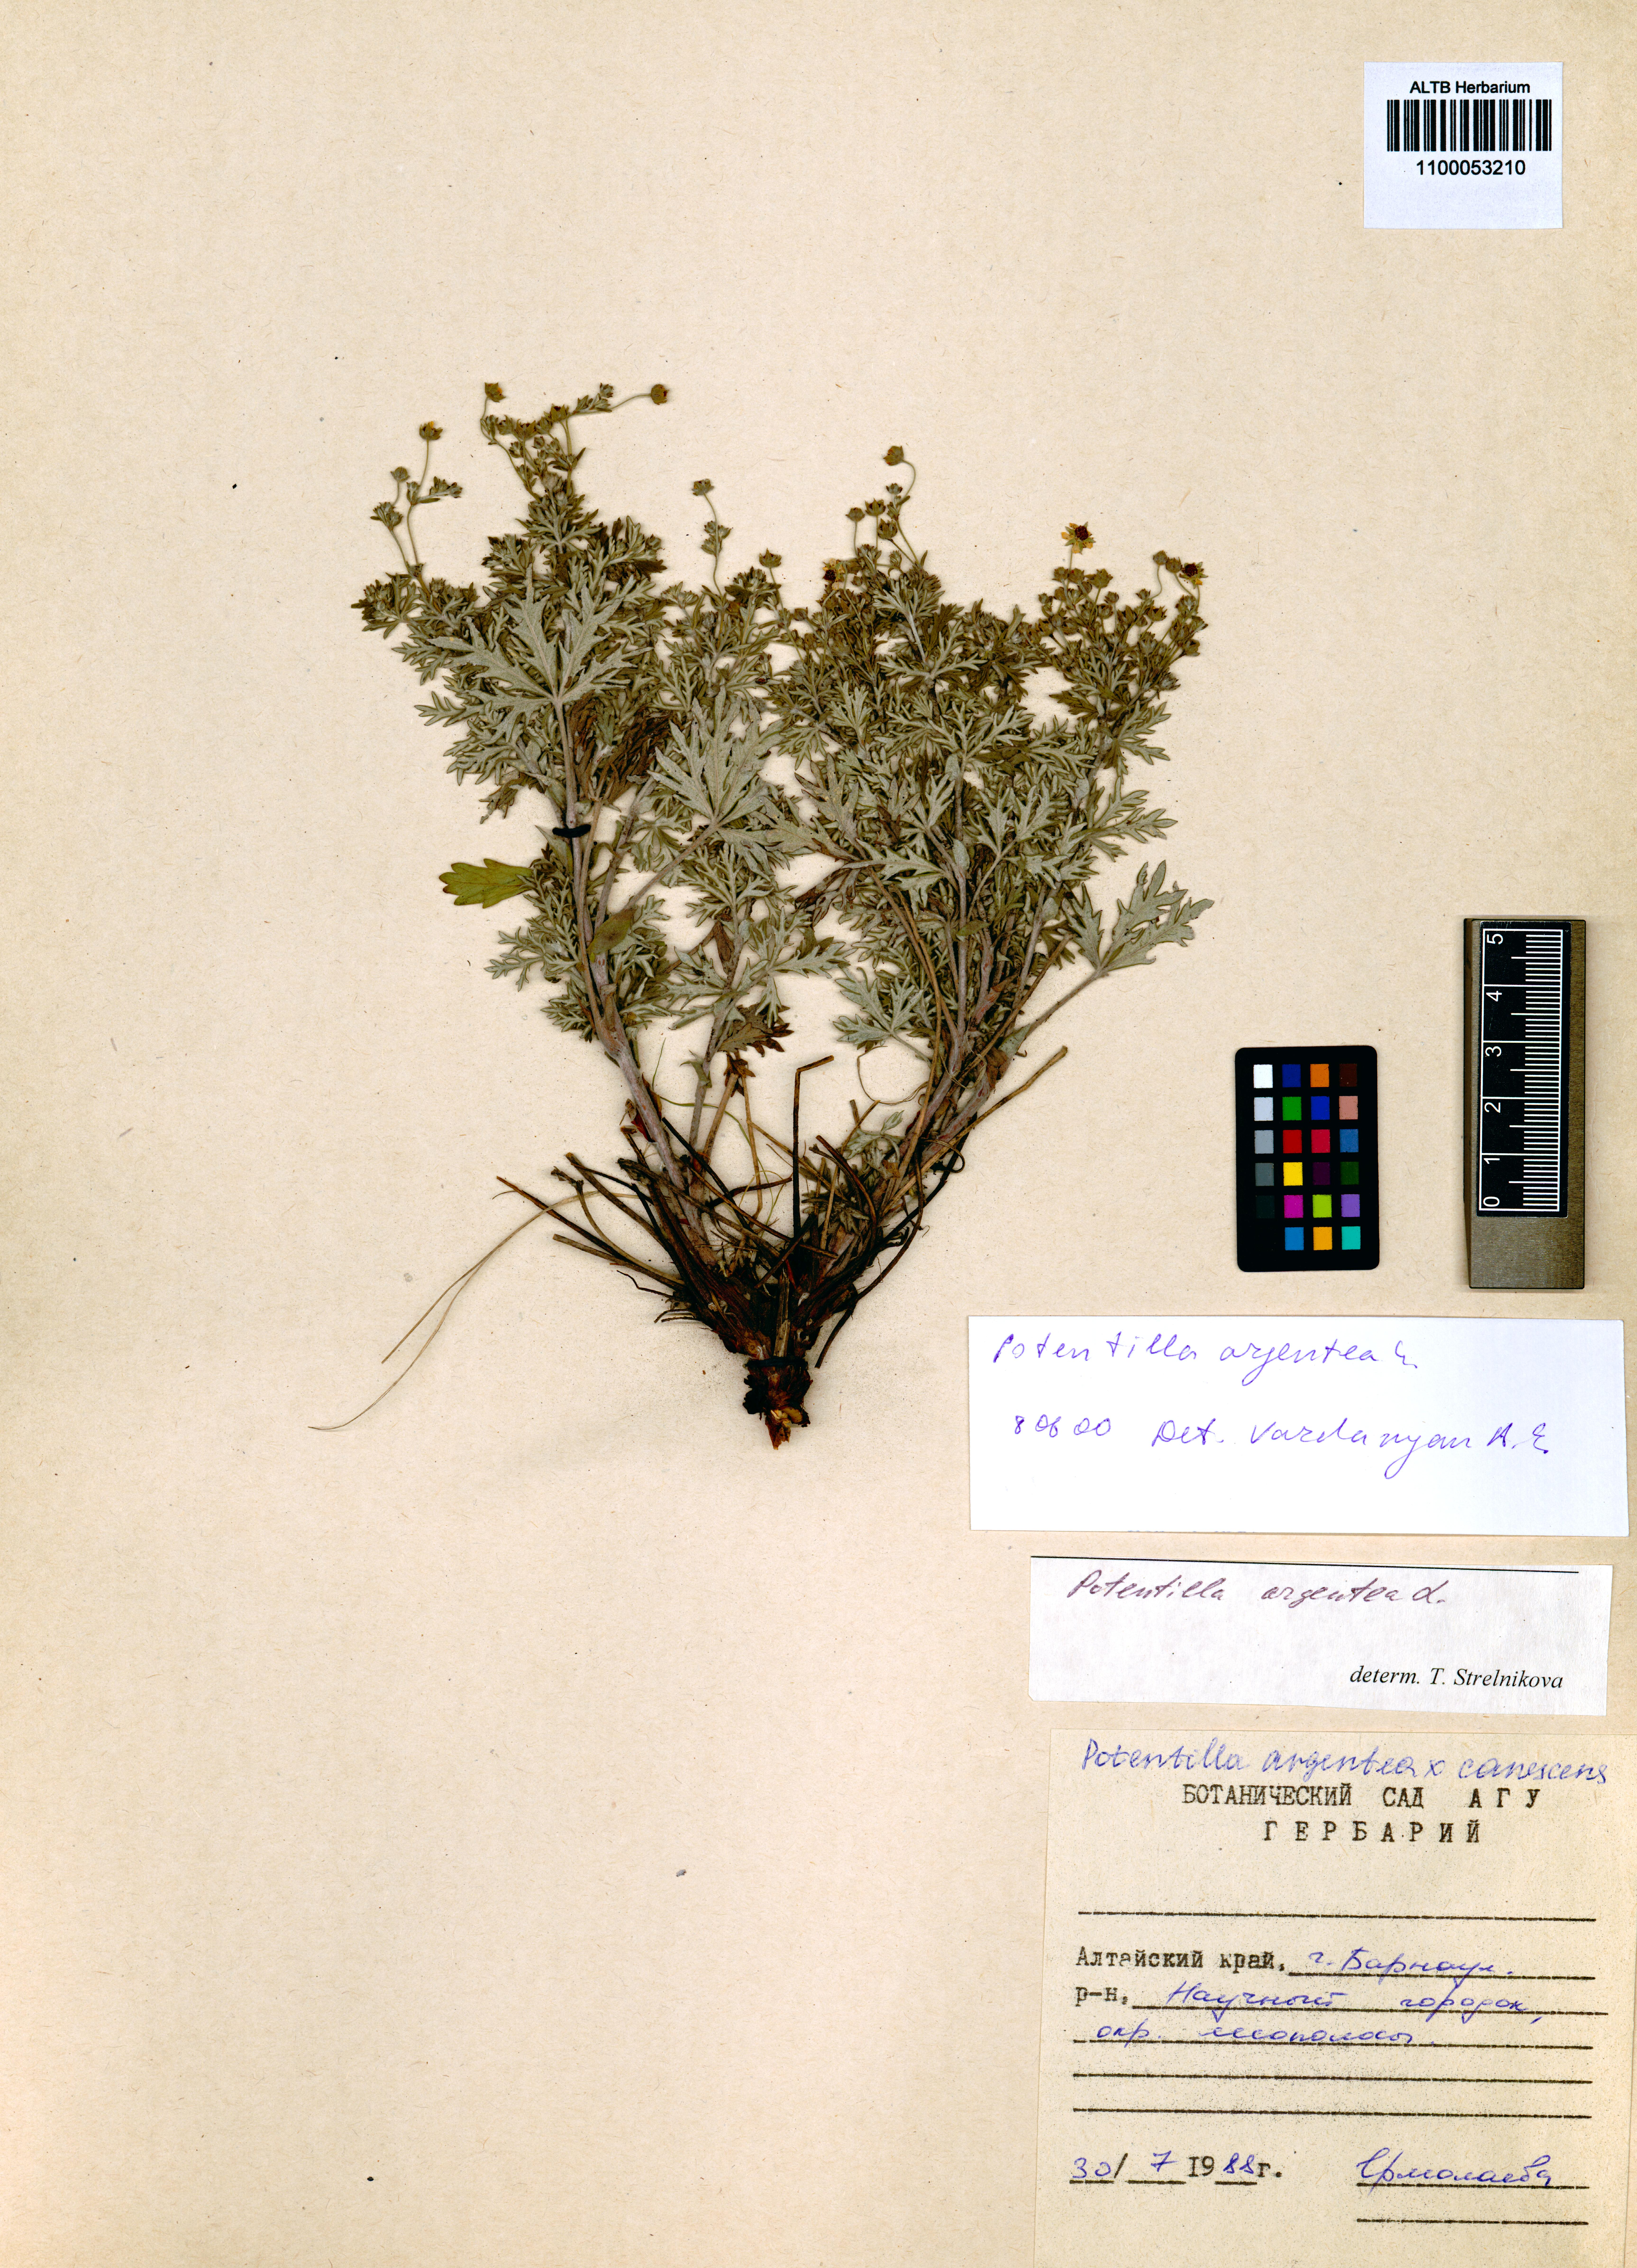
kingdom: Plantae
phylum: Tracheophyta
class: Magnoliopsida
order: Rosales
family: Rosaceae
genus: Potentilla
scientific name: Potentilla argentea
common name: Hoary cinquefoil
